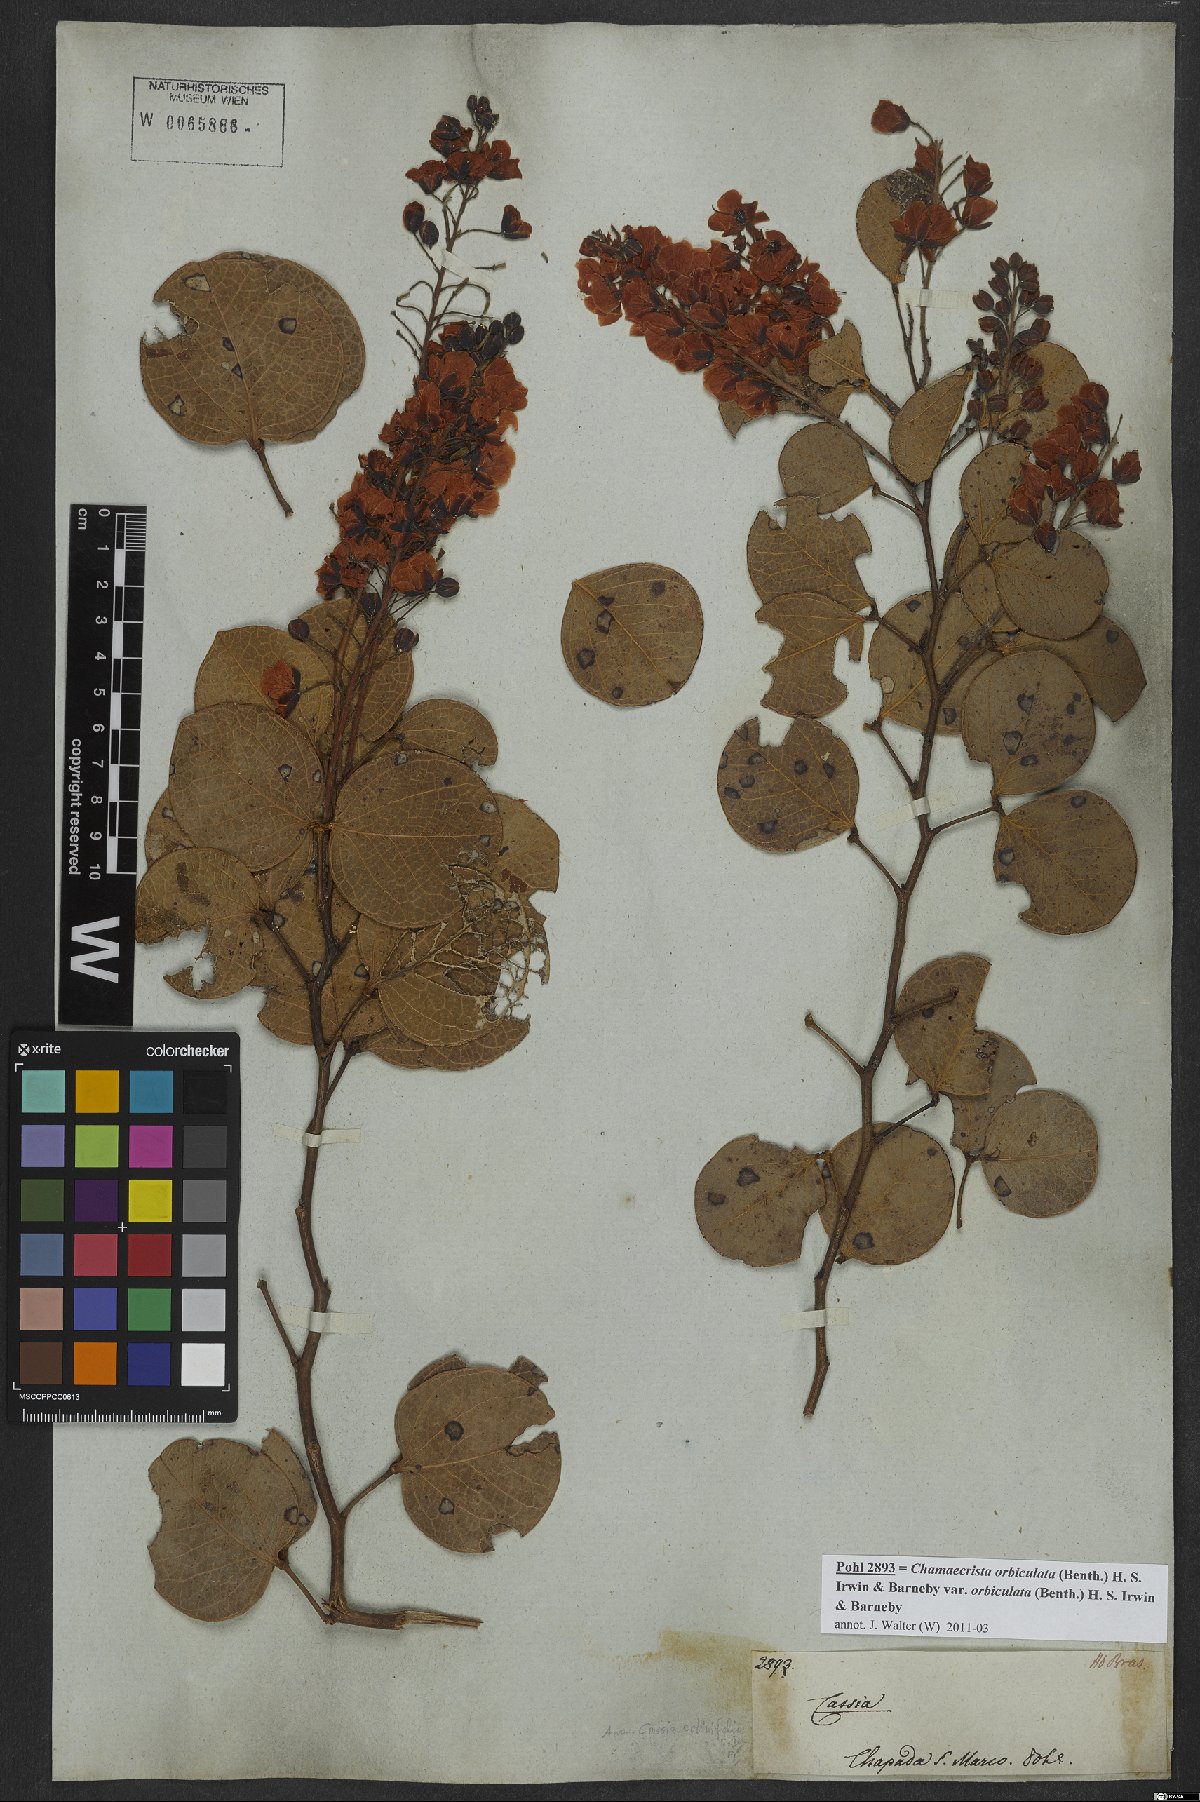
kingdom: Plantae
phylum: Tracheophyta
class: Magnoliopsida
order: Fabales
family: Fabaceae
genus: Chamaecrista
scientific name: Chamaecrista cotinifolia
